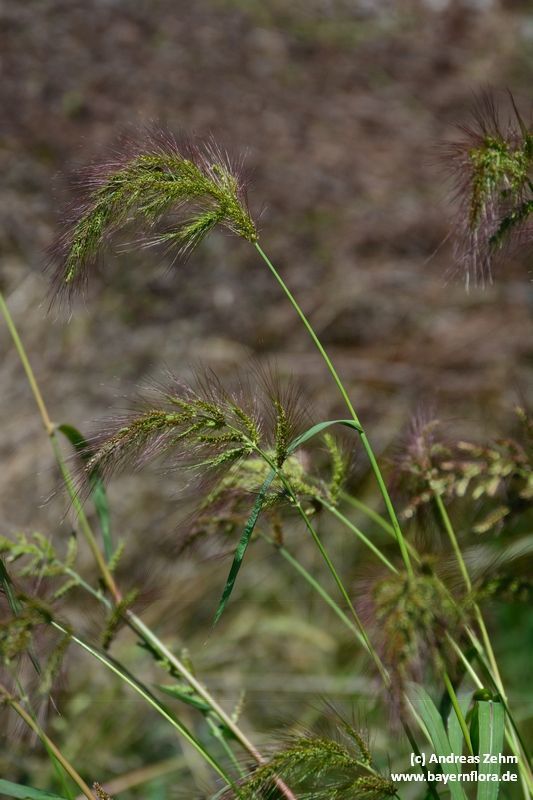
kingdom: Plantae
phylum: Tracheophyta
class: Liliopsida
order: Poales
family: Poaceae
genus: Echinochloa
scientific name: Echinochloa crus-galli
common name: Cockspur
